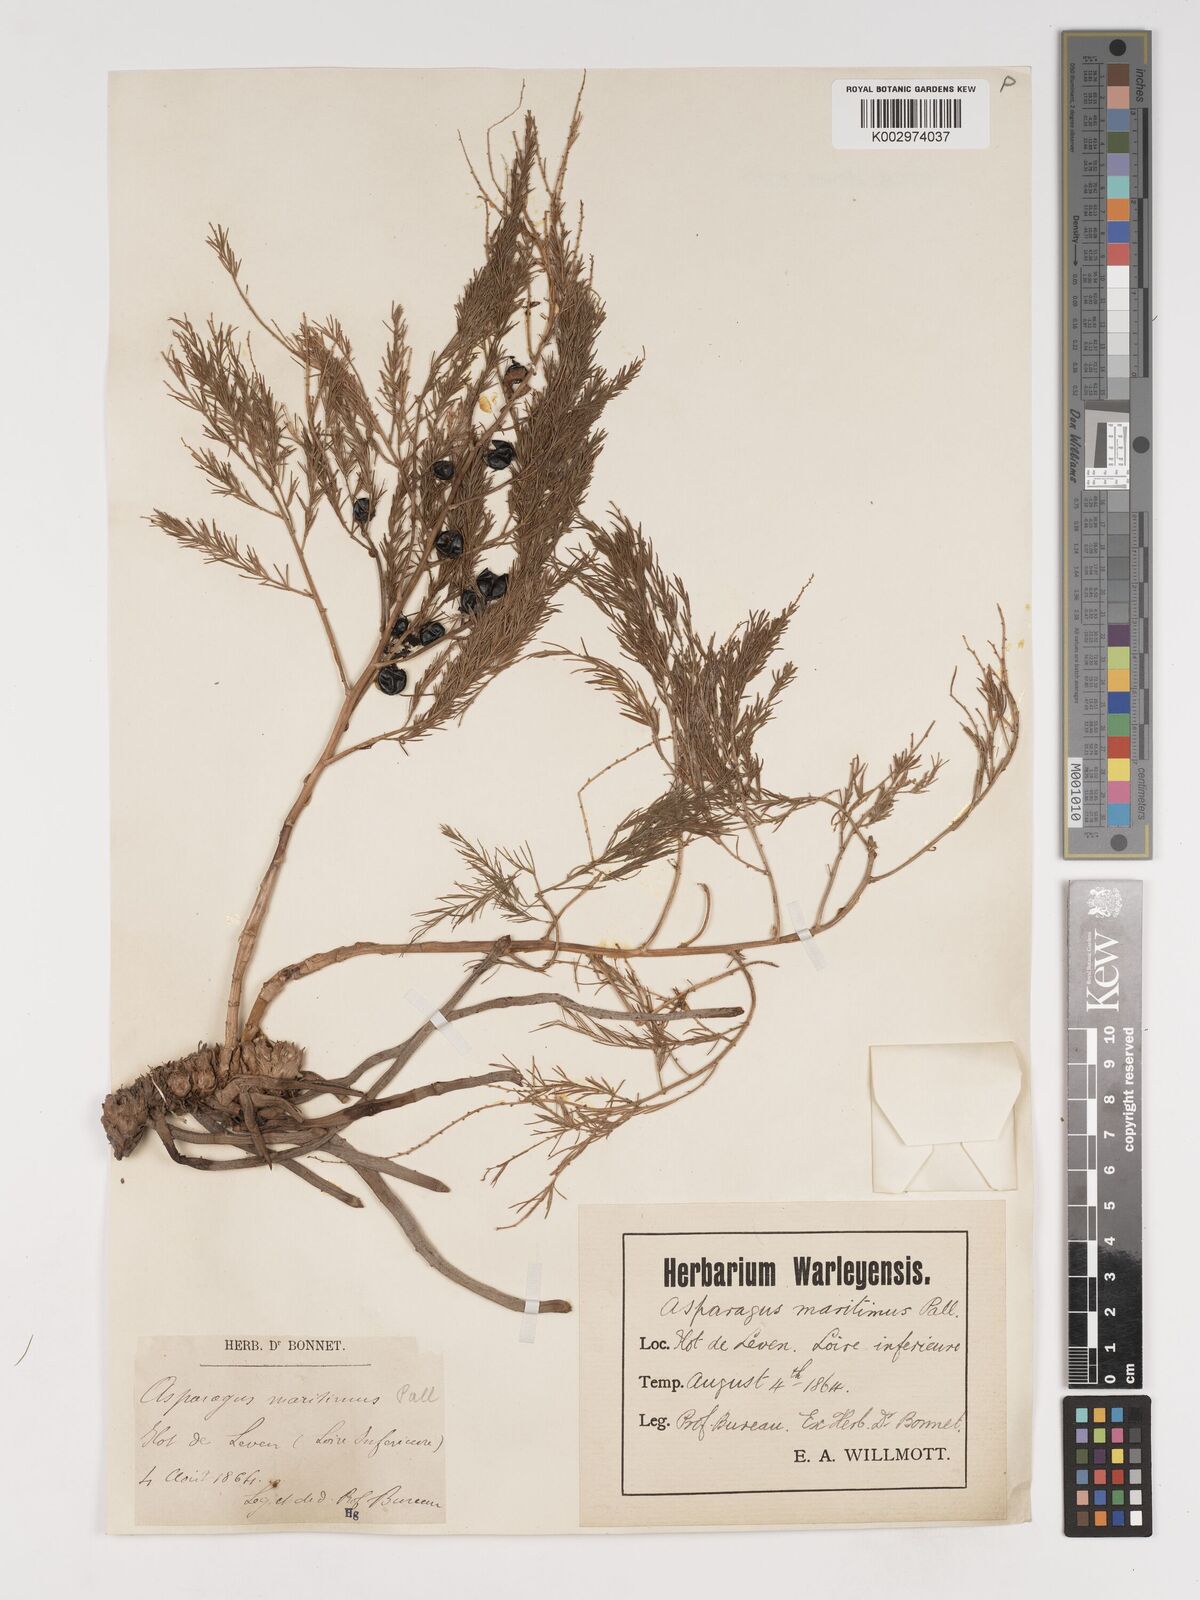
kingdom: Plantae
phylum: Tracheophyta
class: Liliopsida
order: Asparagales
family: Asparagaceae
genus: Asparagus
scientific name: Asparagus maritimus
